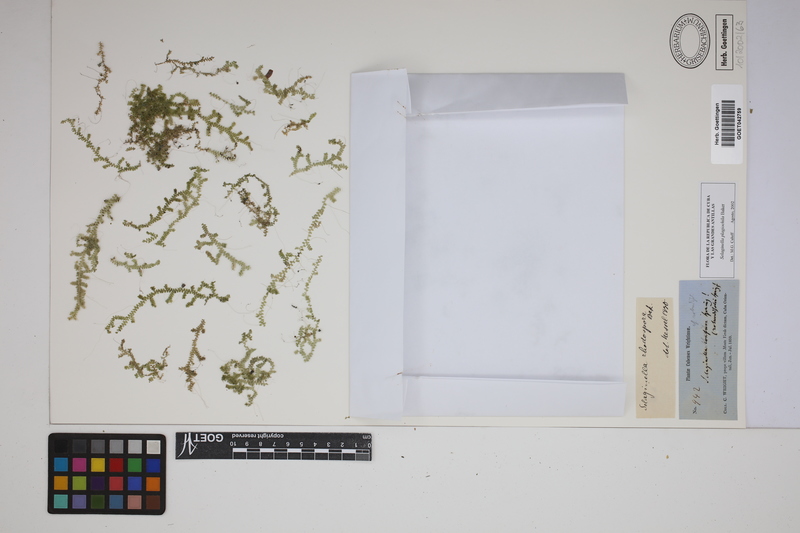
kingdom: Plantae
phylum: Tracheophyta
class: Lycopodiopsida
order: Selaginellales
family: Selaginellaceae
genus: Selaginella
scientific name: Selaginella plagiochila
